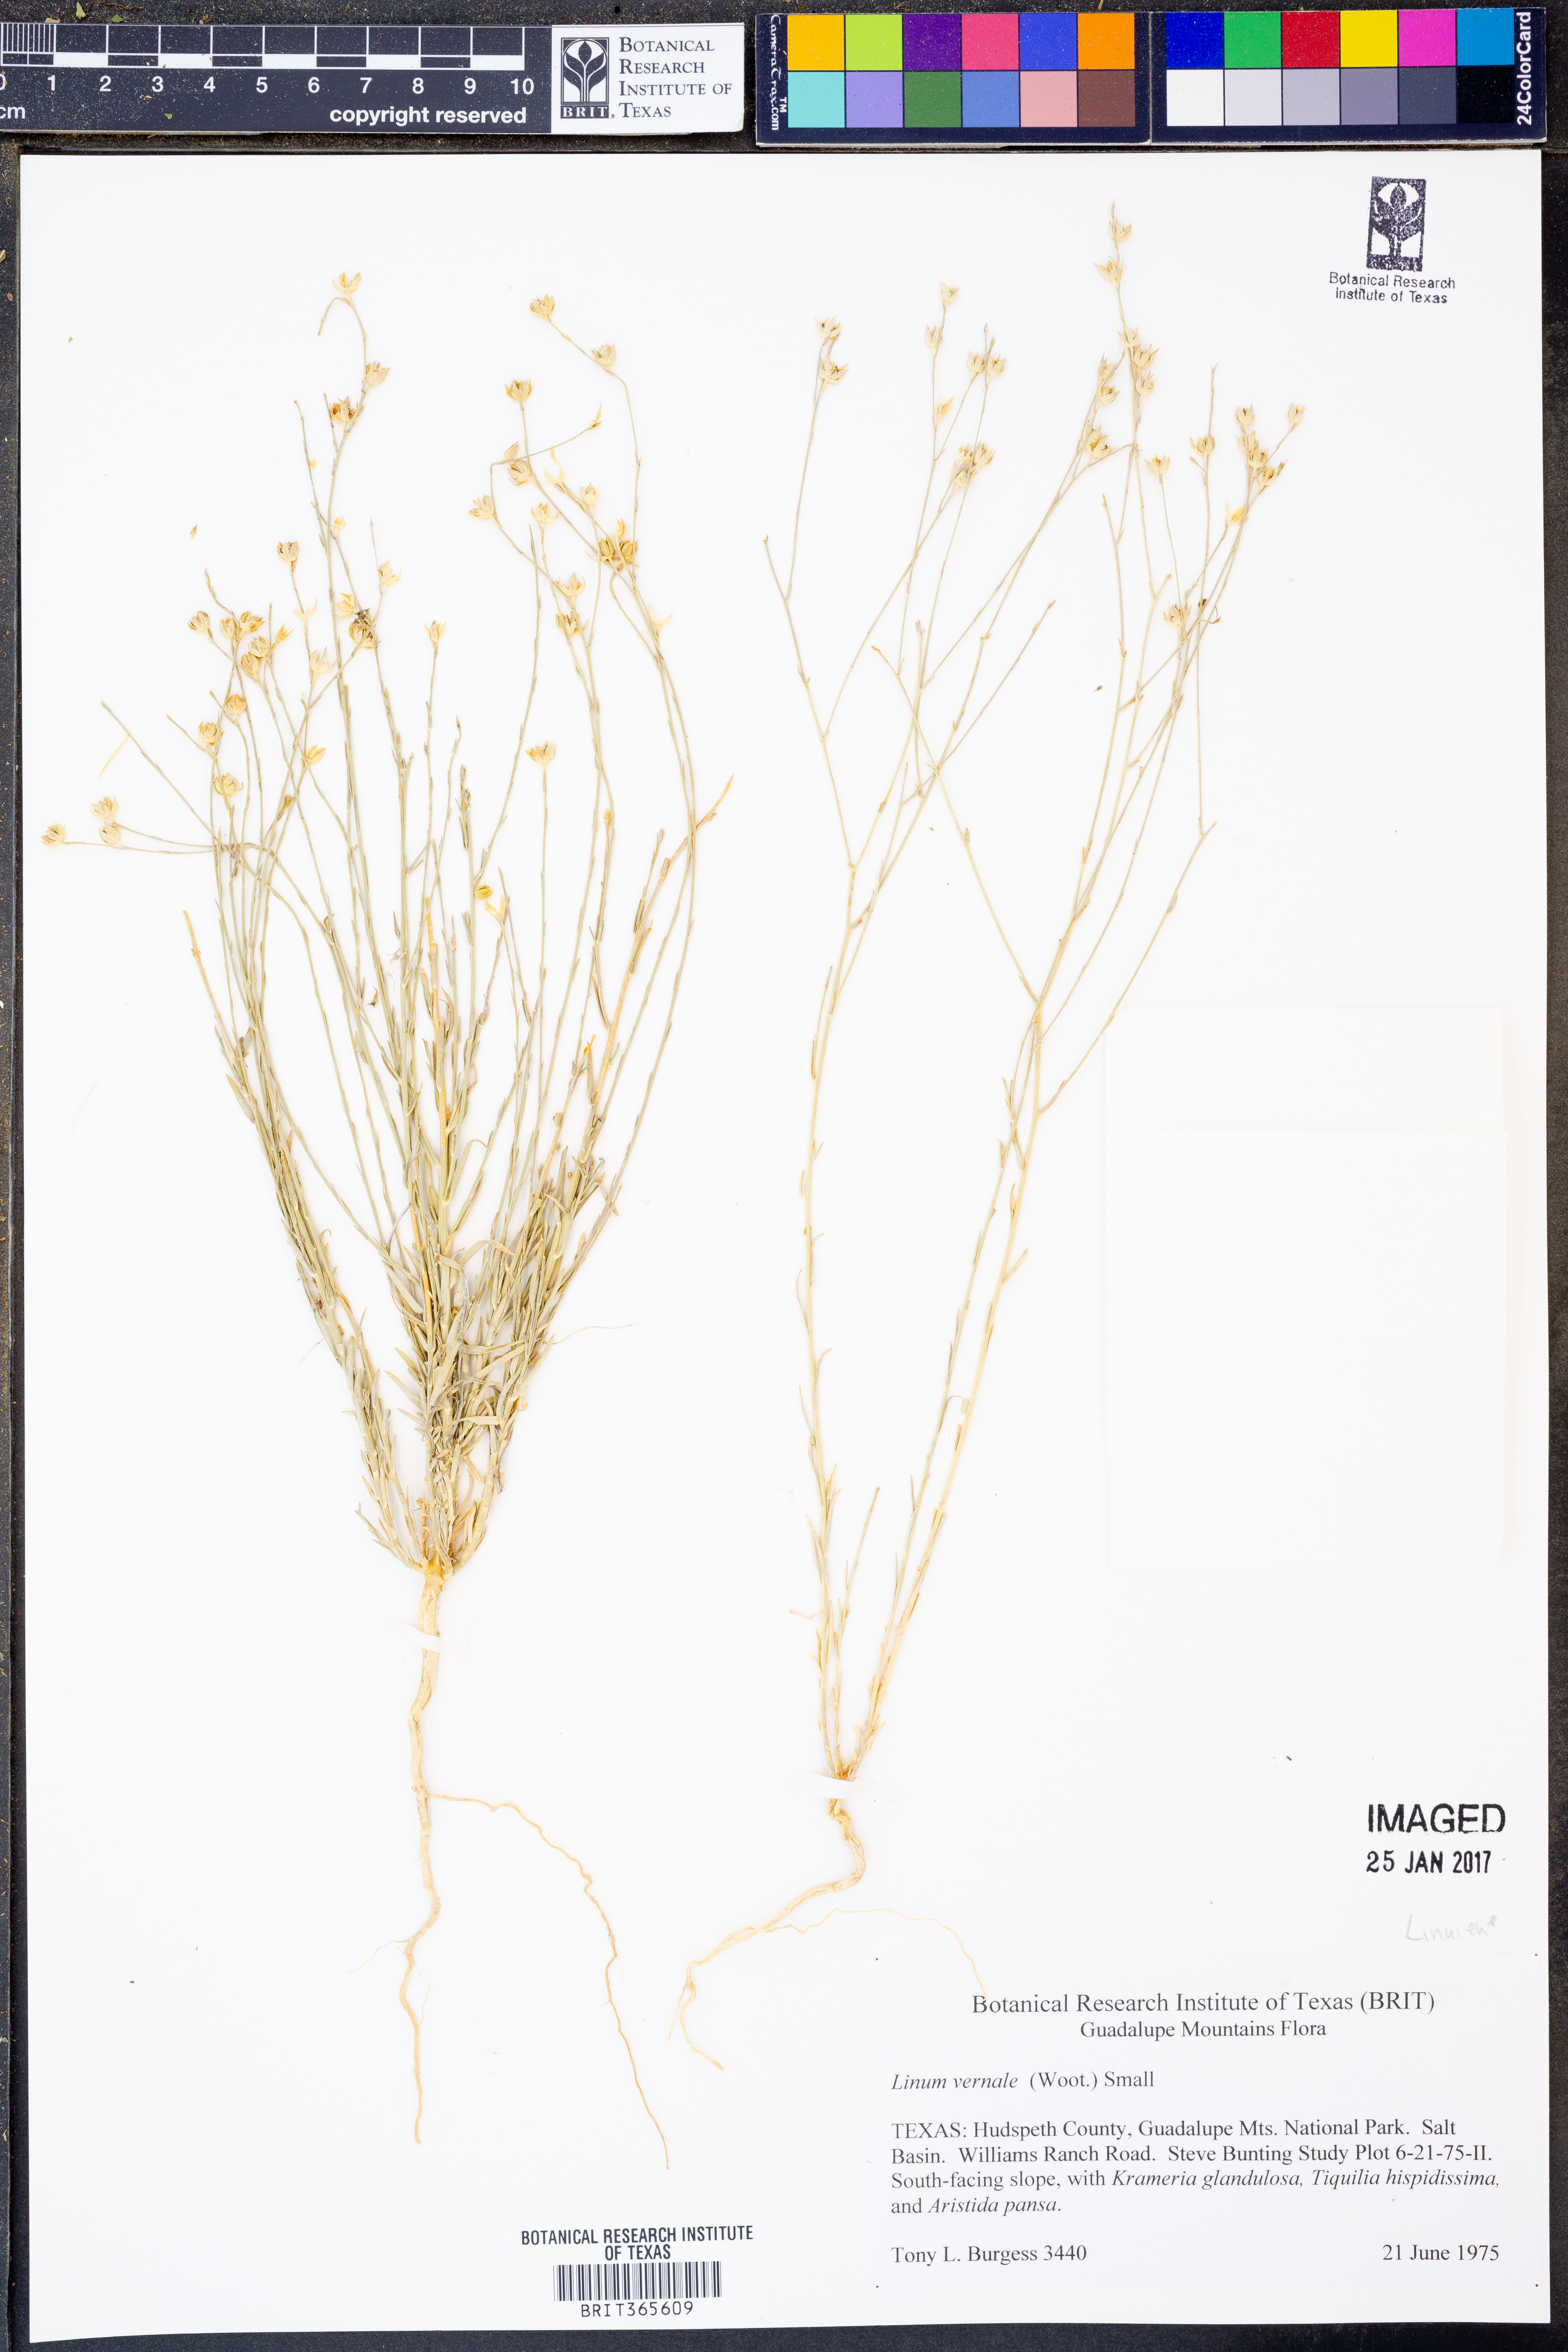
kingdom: Plantae
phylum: Tracheophyta
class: Magnoliopsida
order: Malpighiales
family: Linaceae
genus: Linum
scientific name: Linum vernale
